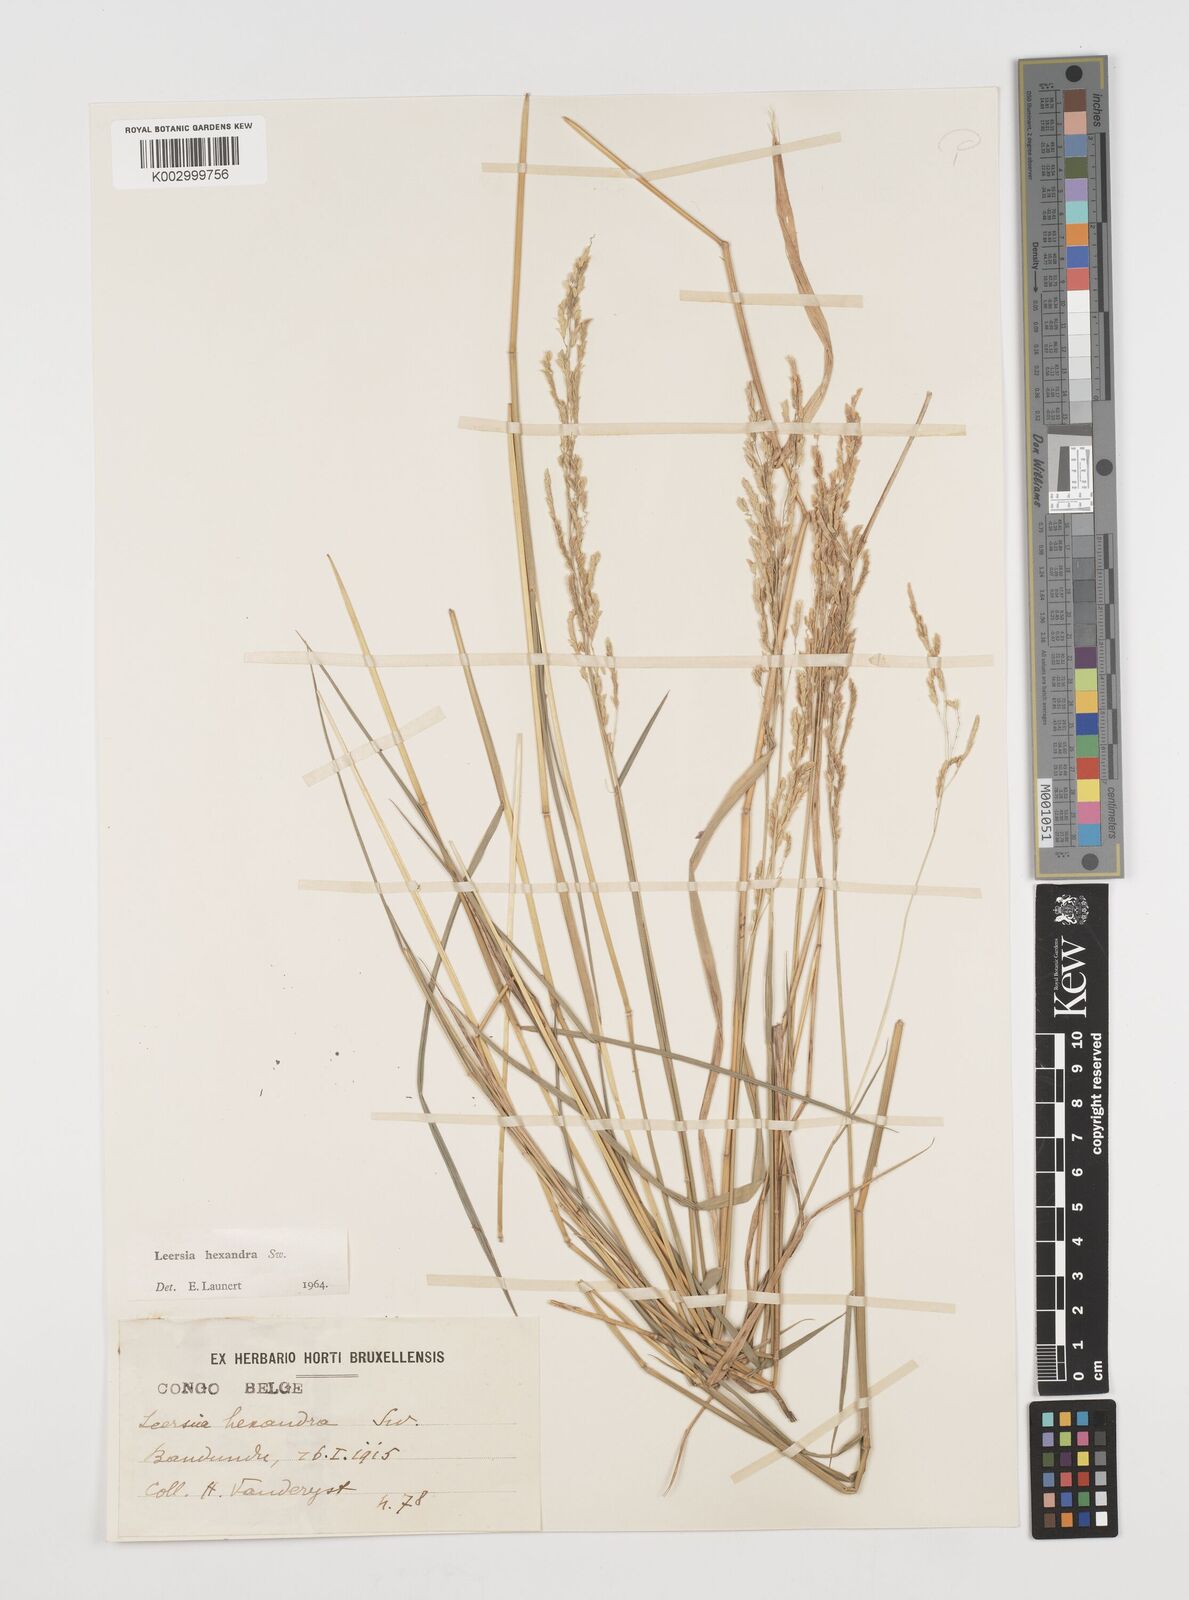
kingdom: Plantae
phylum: Tracheophyta
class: Liliopsida
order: Poales
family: Poaceae
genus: Leersia
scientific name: Leersia hexandra
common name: Southern cut grass
